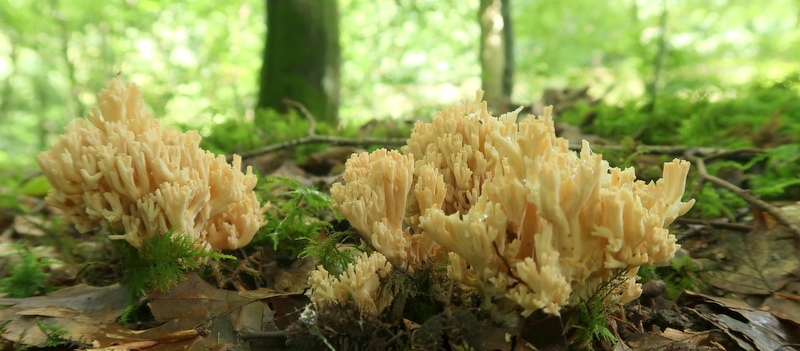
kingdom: Fungi
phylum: Basidiomycota
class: Agaricomycetes
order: Gomphales
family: Gomphaceae
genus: Ramaria
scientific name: Ramaria botrytis
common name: drue-koralsvamp
